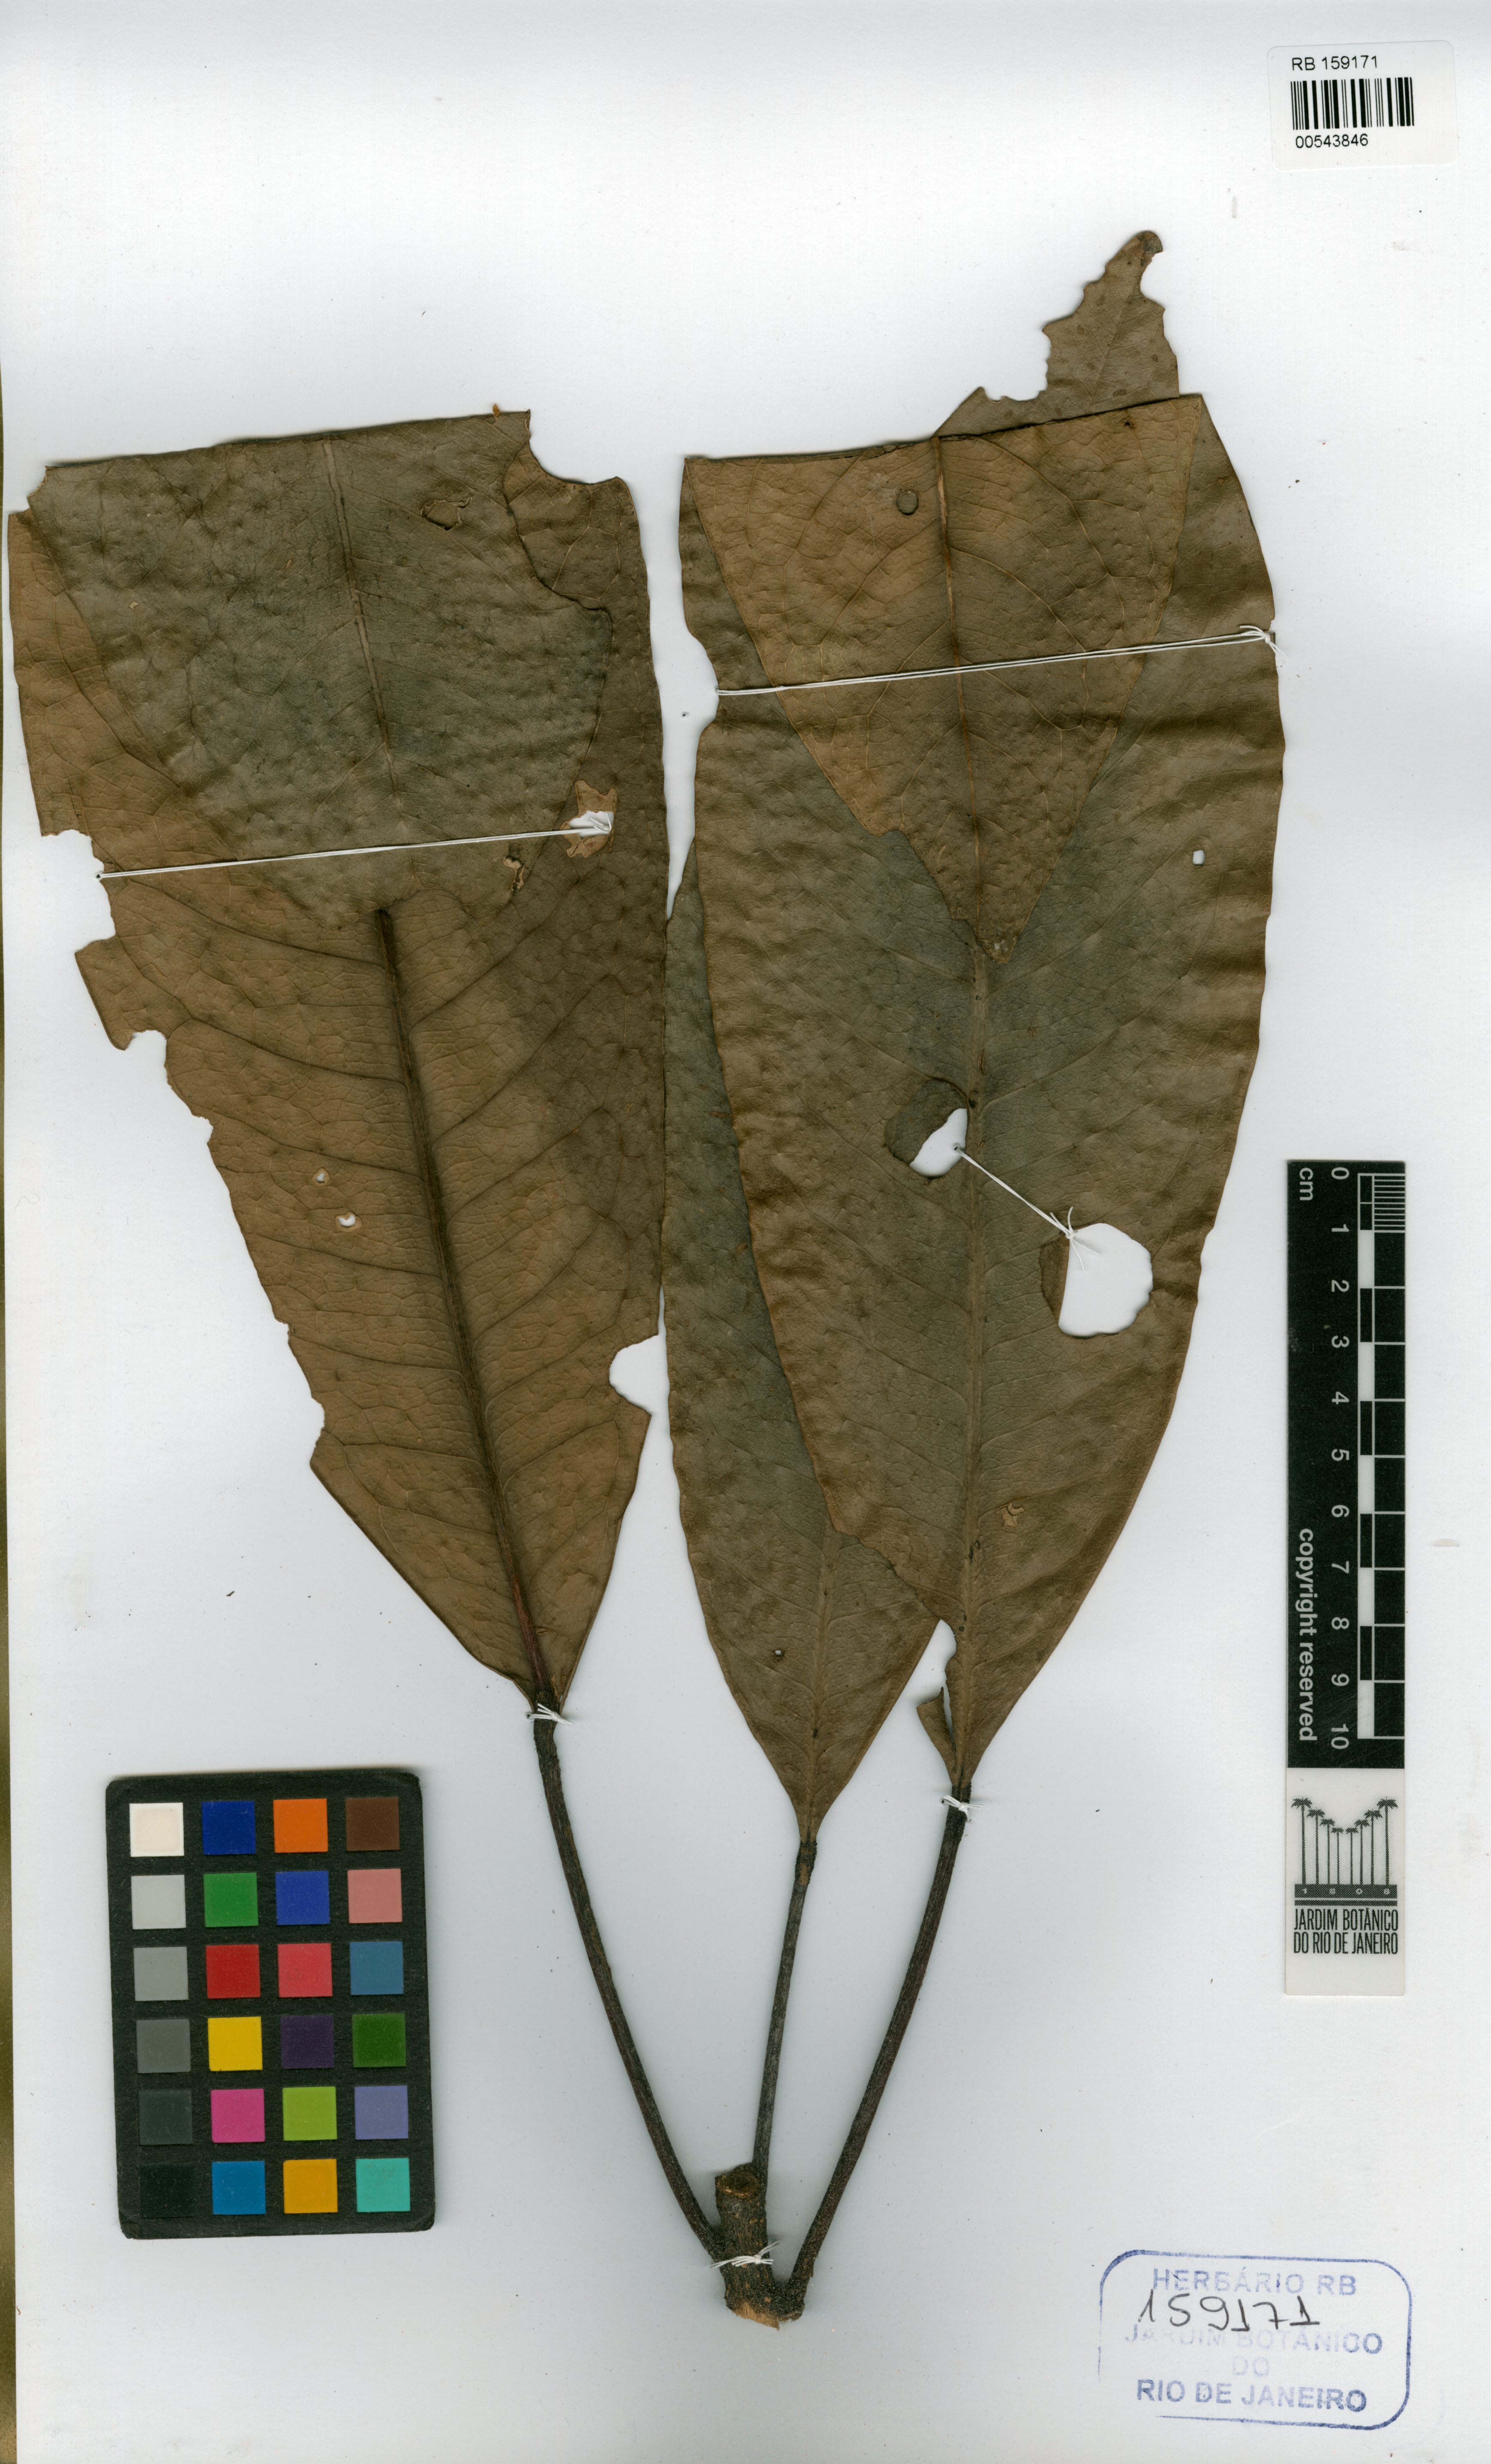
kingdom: Plantae
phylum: Tracheophyta
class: Magnoliopsida
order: Sapindales
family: Rutaceae
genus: Conchocarpus
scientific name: Conchocarpus furcatus
